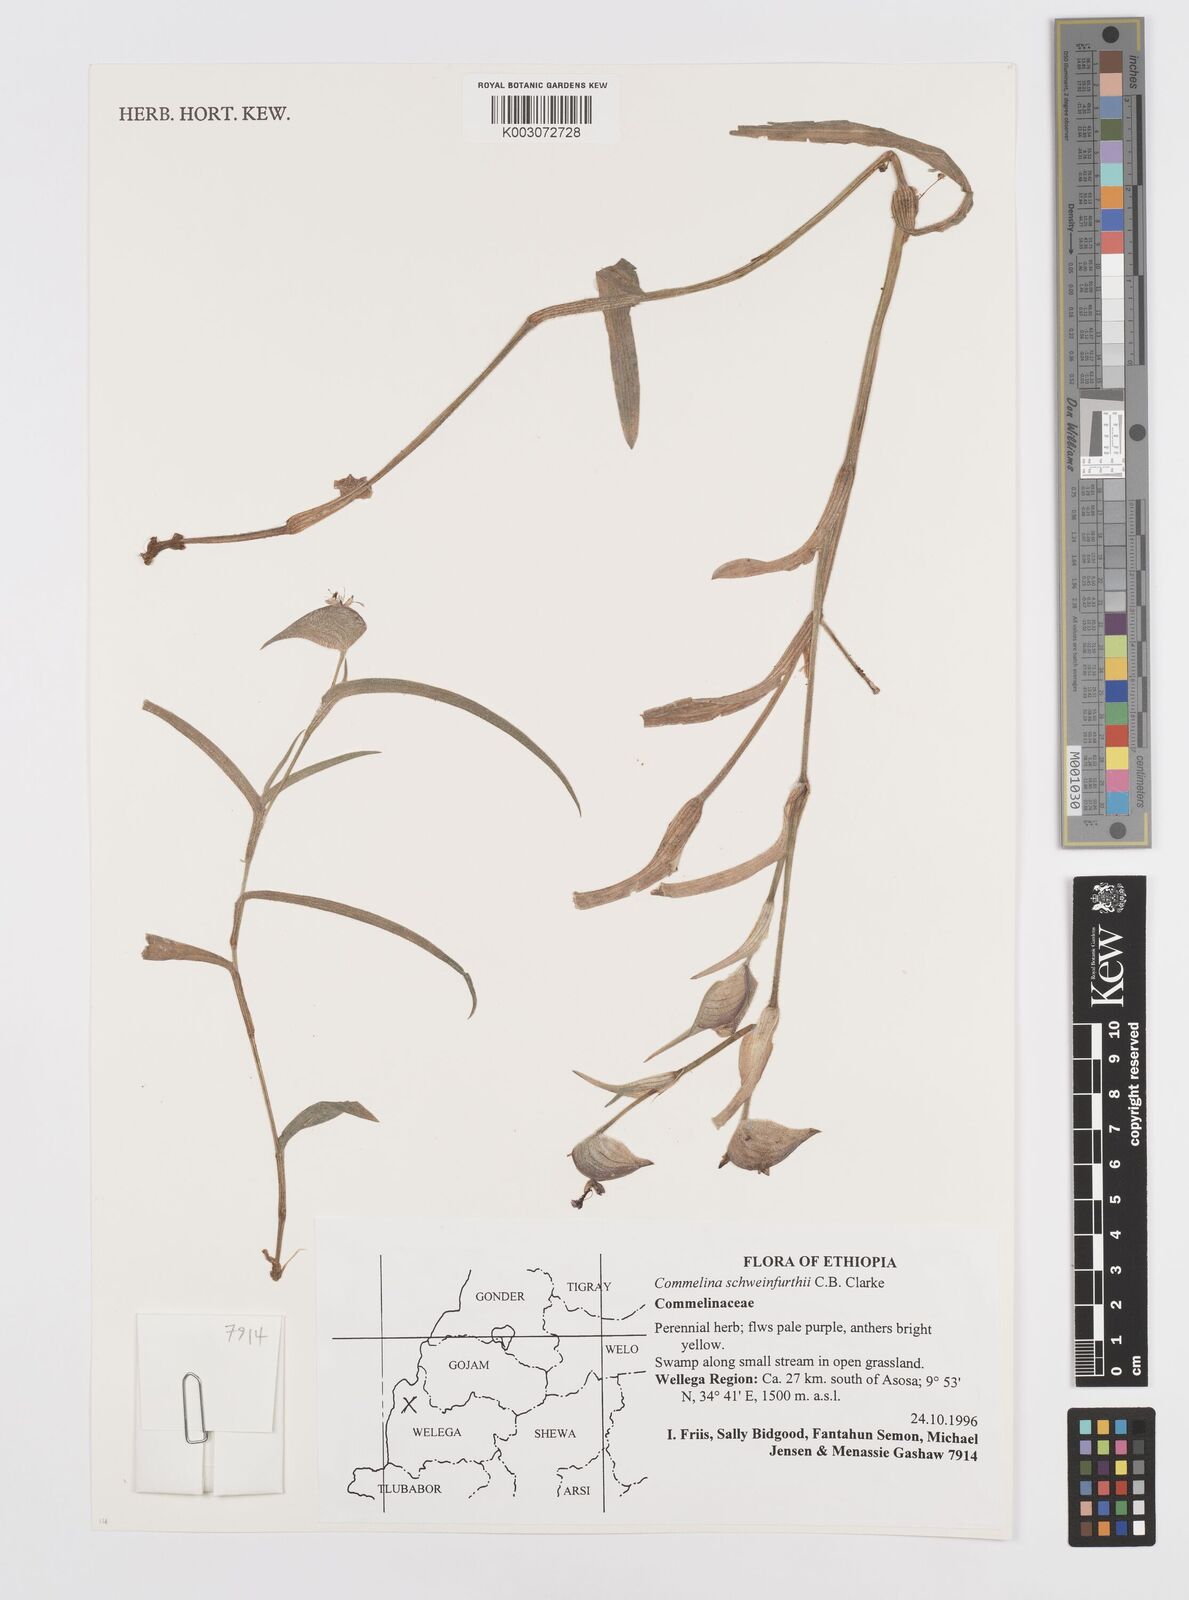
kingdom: Plantae
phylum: Tracheophyta
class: Liliopsida
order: Commelinales
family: Commelinaceae
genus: Commelina
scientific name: Commelina schweinfurthii
